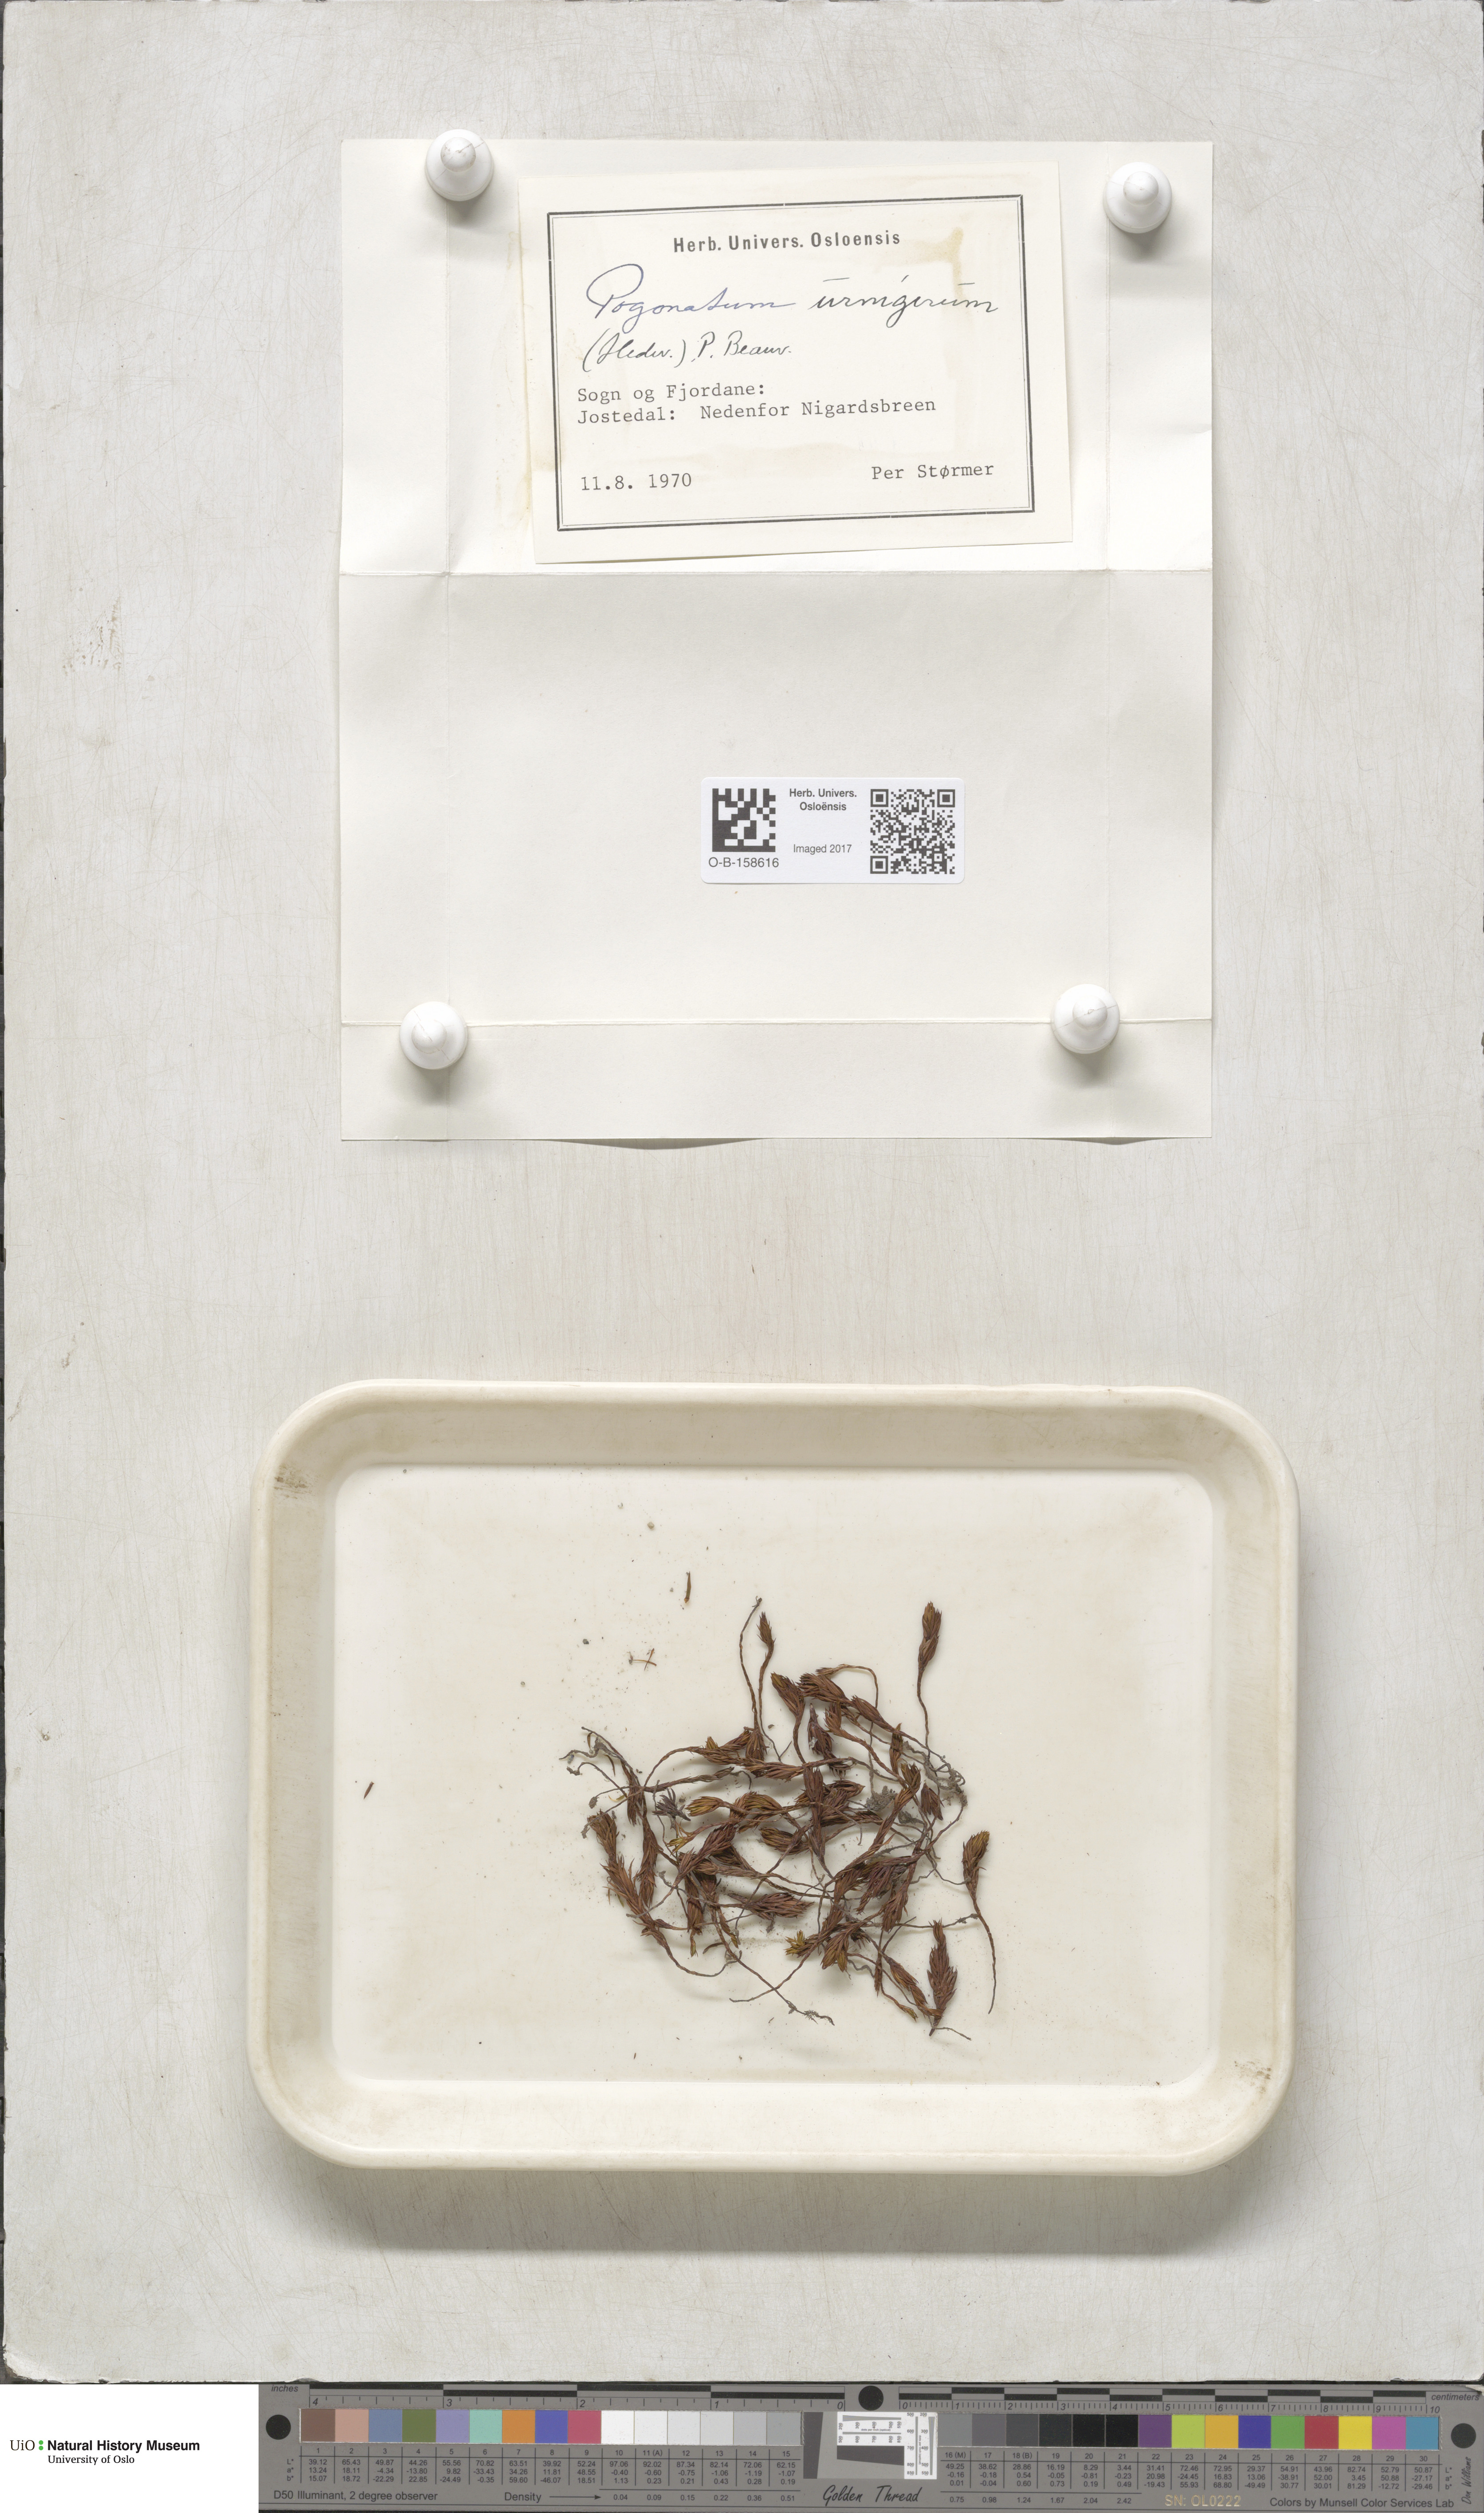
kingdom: Plantae
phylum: Bryophyta
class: Polytrichopsida
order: Polytrichales
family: Polytrichaceae
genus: Pogonatum
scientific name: Pogonatum urnigerum
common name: Urn hair moss
